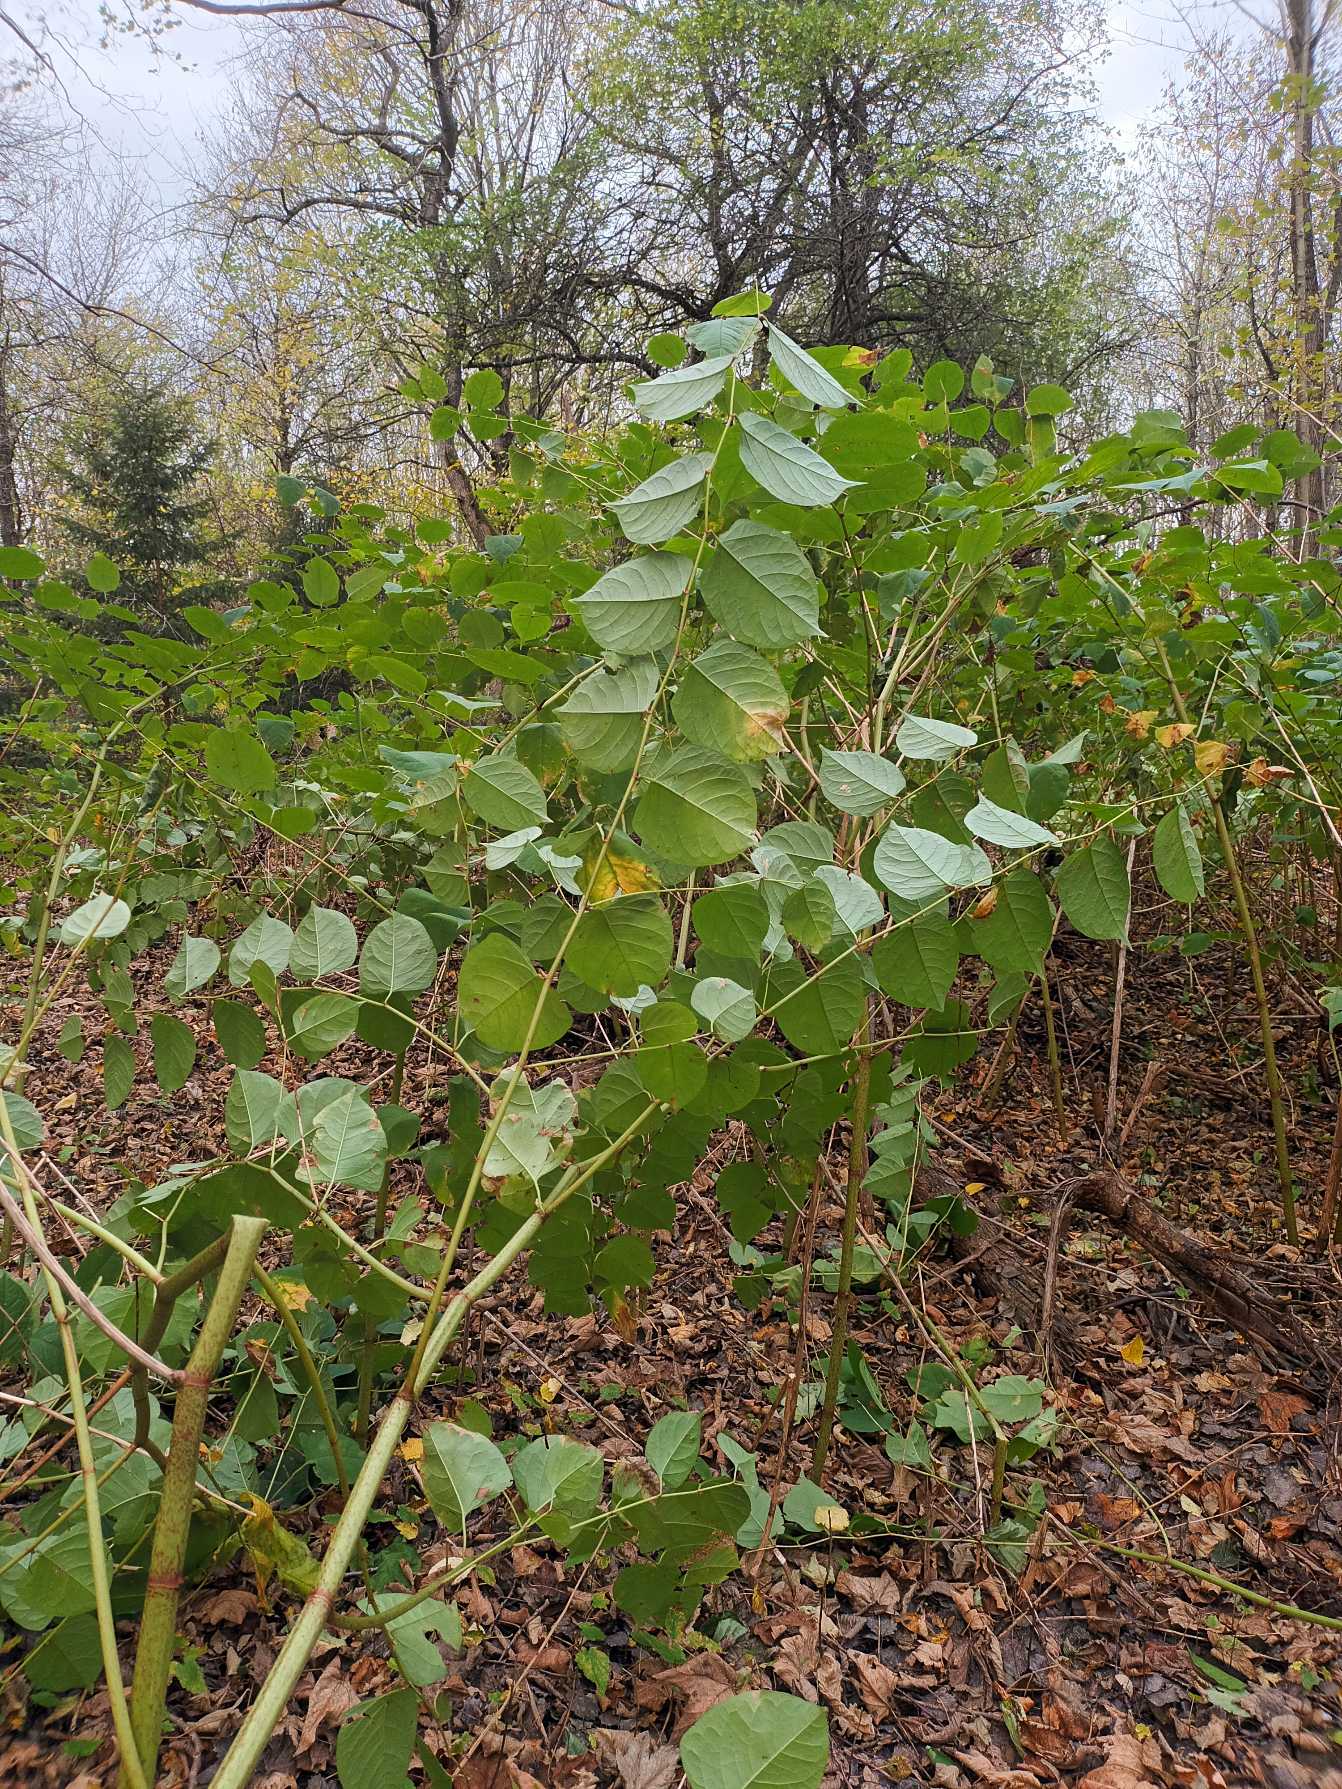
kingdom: Plantae
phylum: Tracheophyta
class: Magnoliopsida
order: Caryophyllales
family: Polygonaceae
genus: Reynoutria
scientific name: Reynoutria japonica
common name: Japan-pileurt
